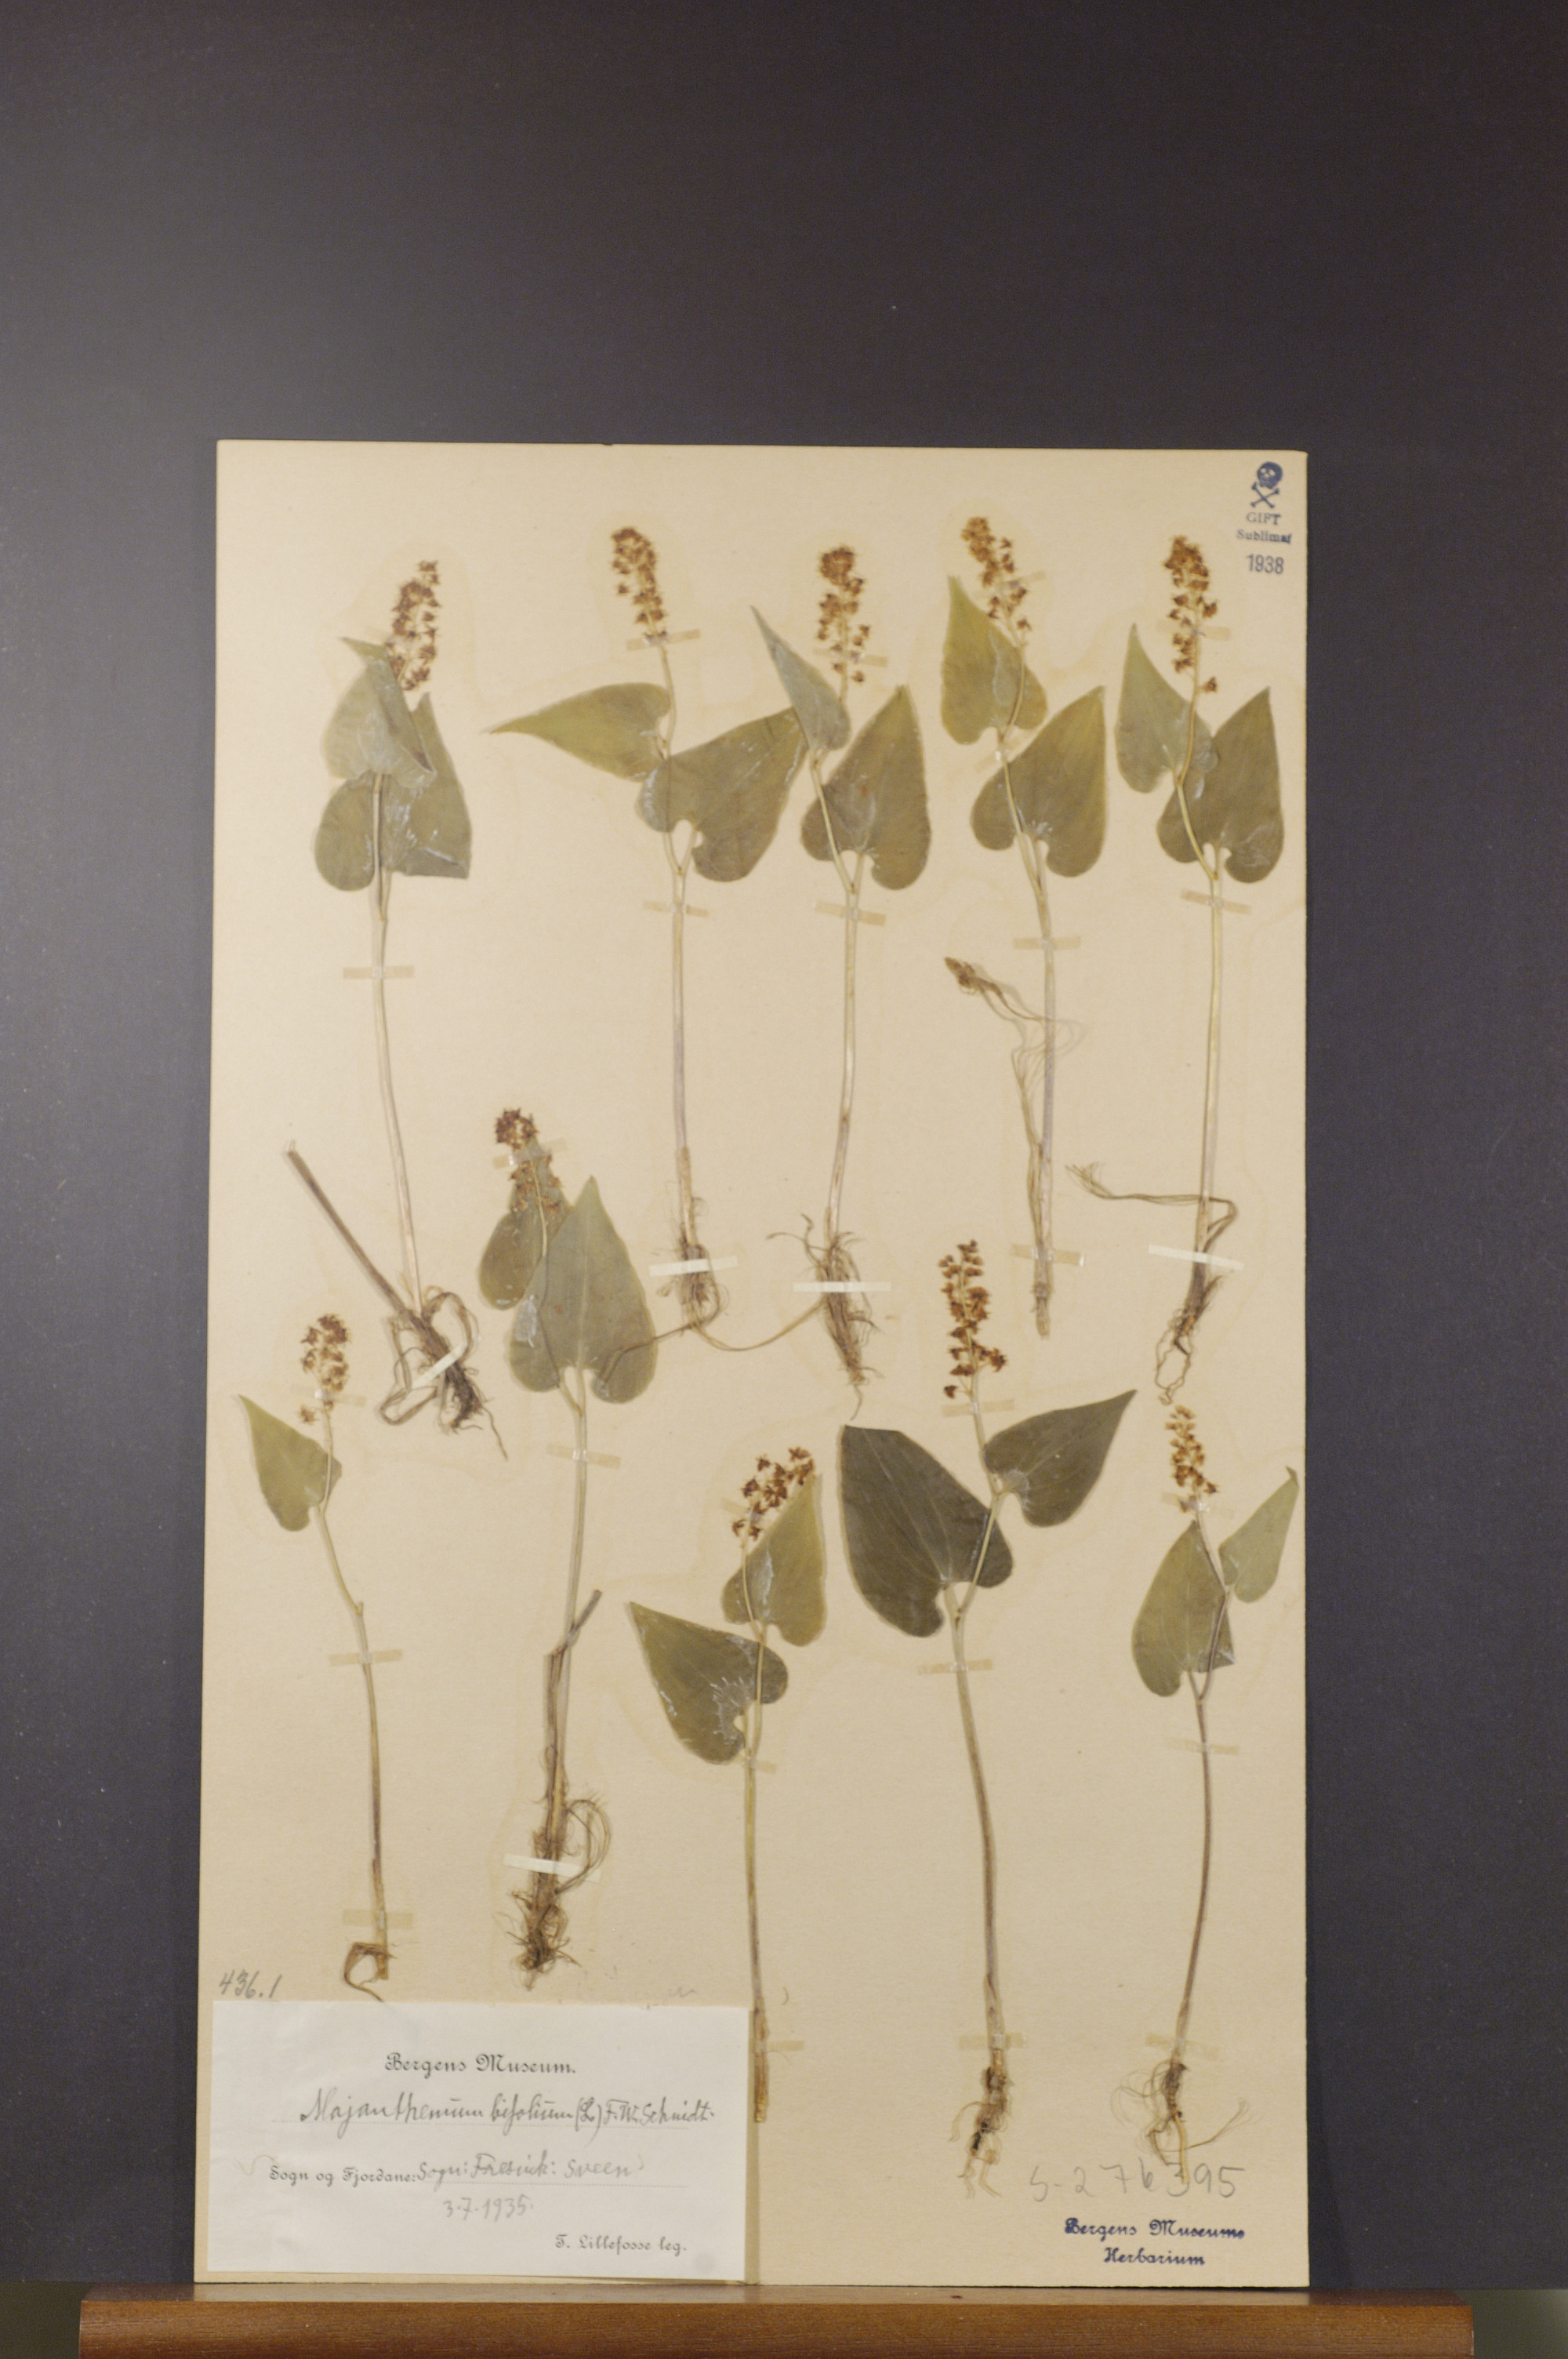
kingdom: Plantae
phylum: Tracheophyta
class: Liliopsida
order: Asparagales
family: Asparagaceae
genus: Maianthemum
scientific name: Maianthemum bifolium
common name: May lily
